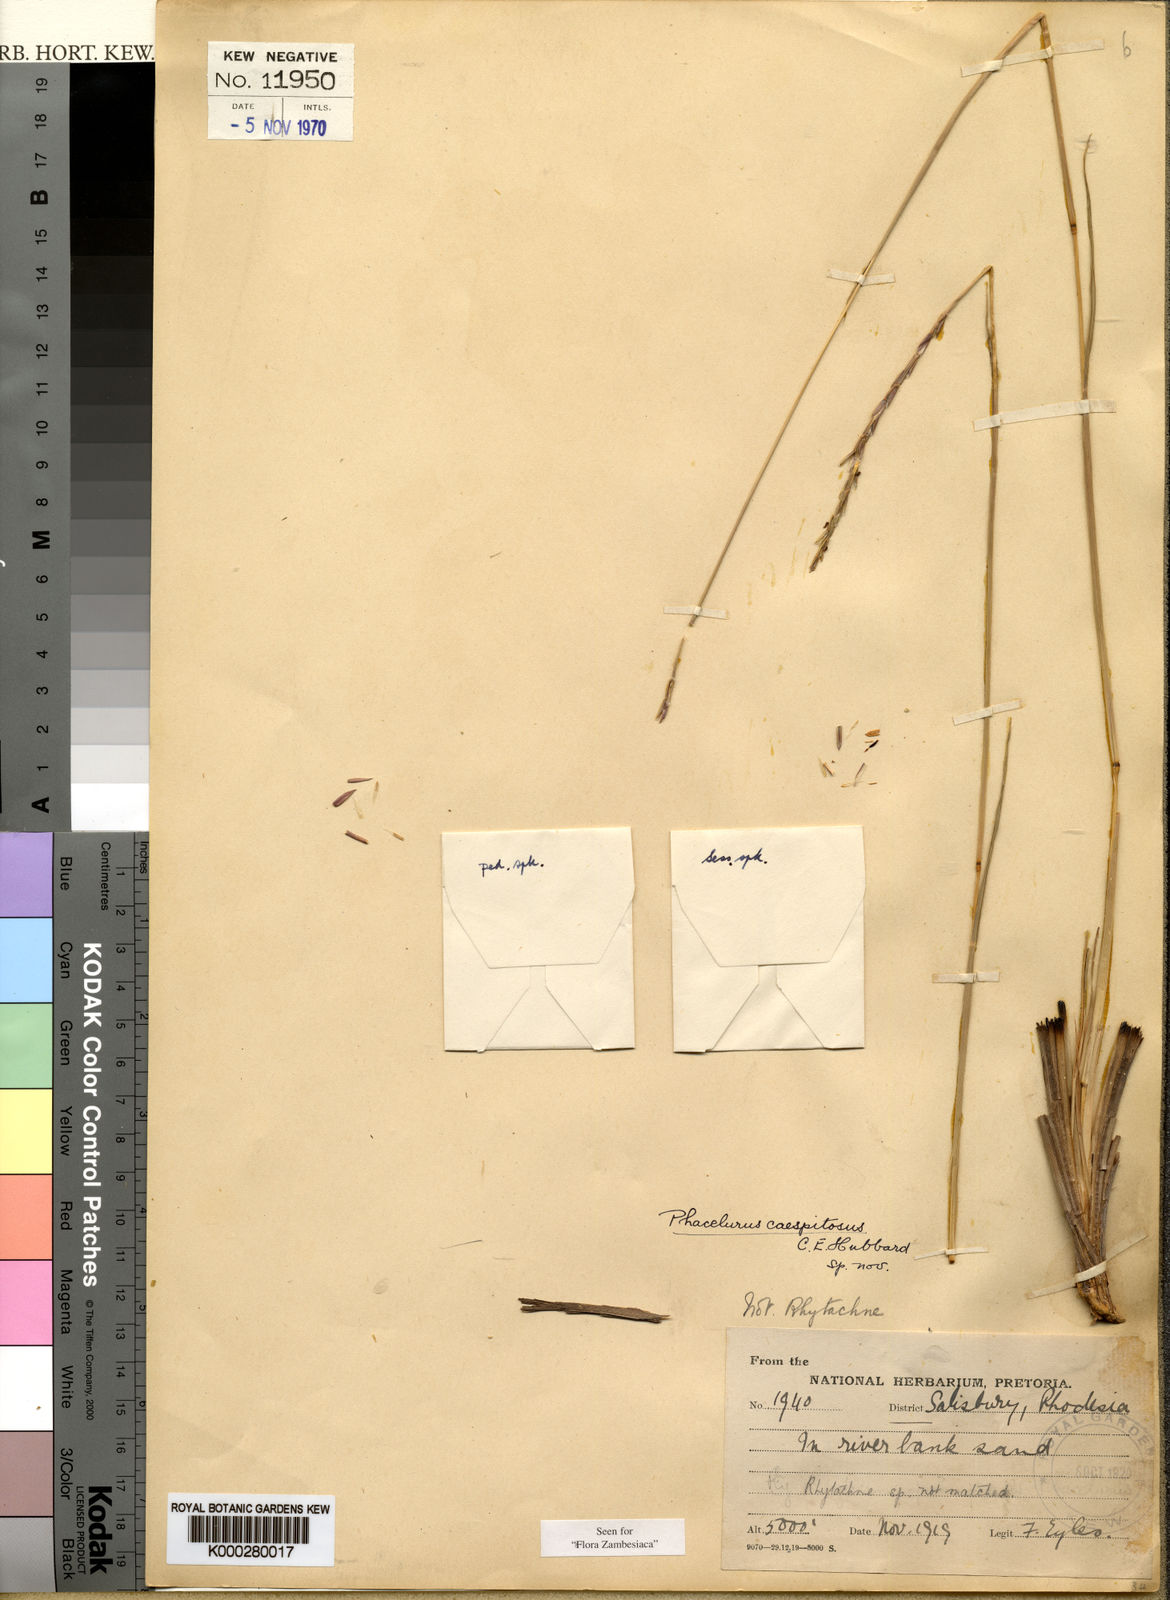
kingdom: Plantae
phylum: Tracheophyta
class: Liliopsida
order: Poales
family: Poaceae
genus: Loxodera
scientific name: Loxodera caespitosa
